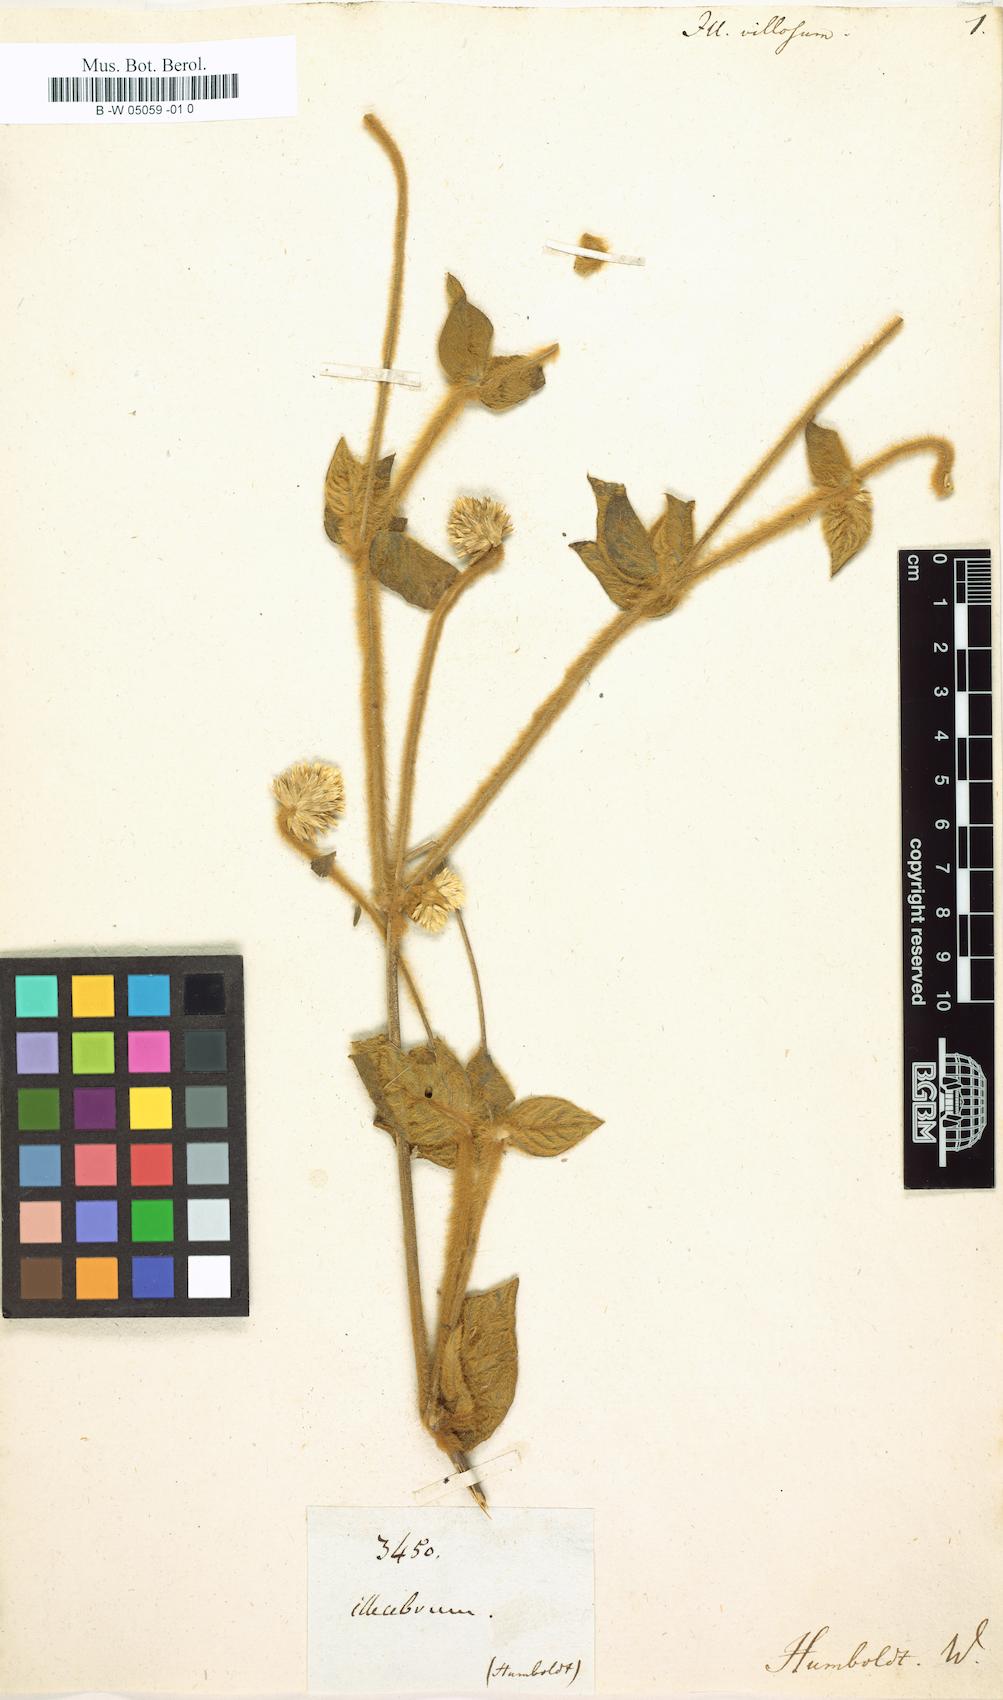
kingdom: Plantae
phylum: Tracheophyta
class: Magnoliopsida
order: Caryophyllales
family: Amaranthaceae
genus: Alternanthera
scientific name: Alternanthera villosa
